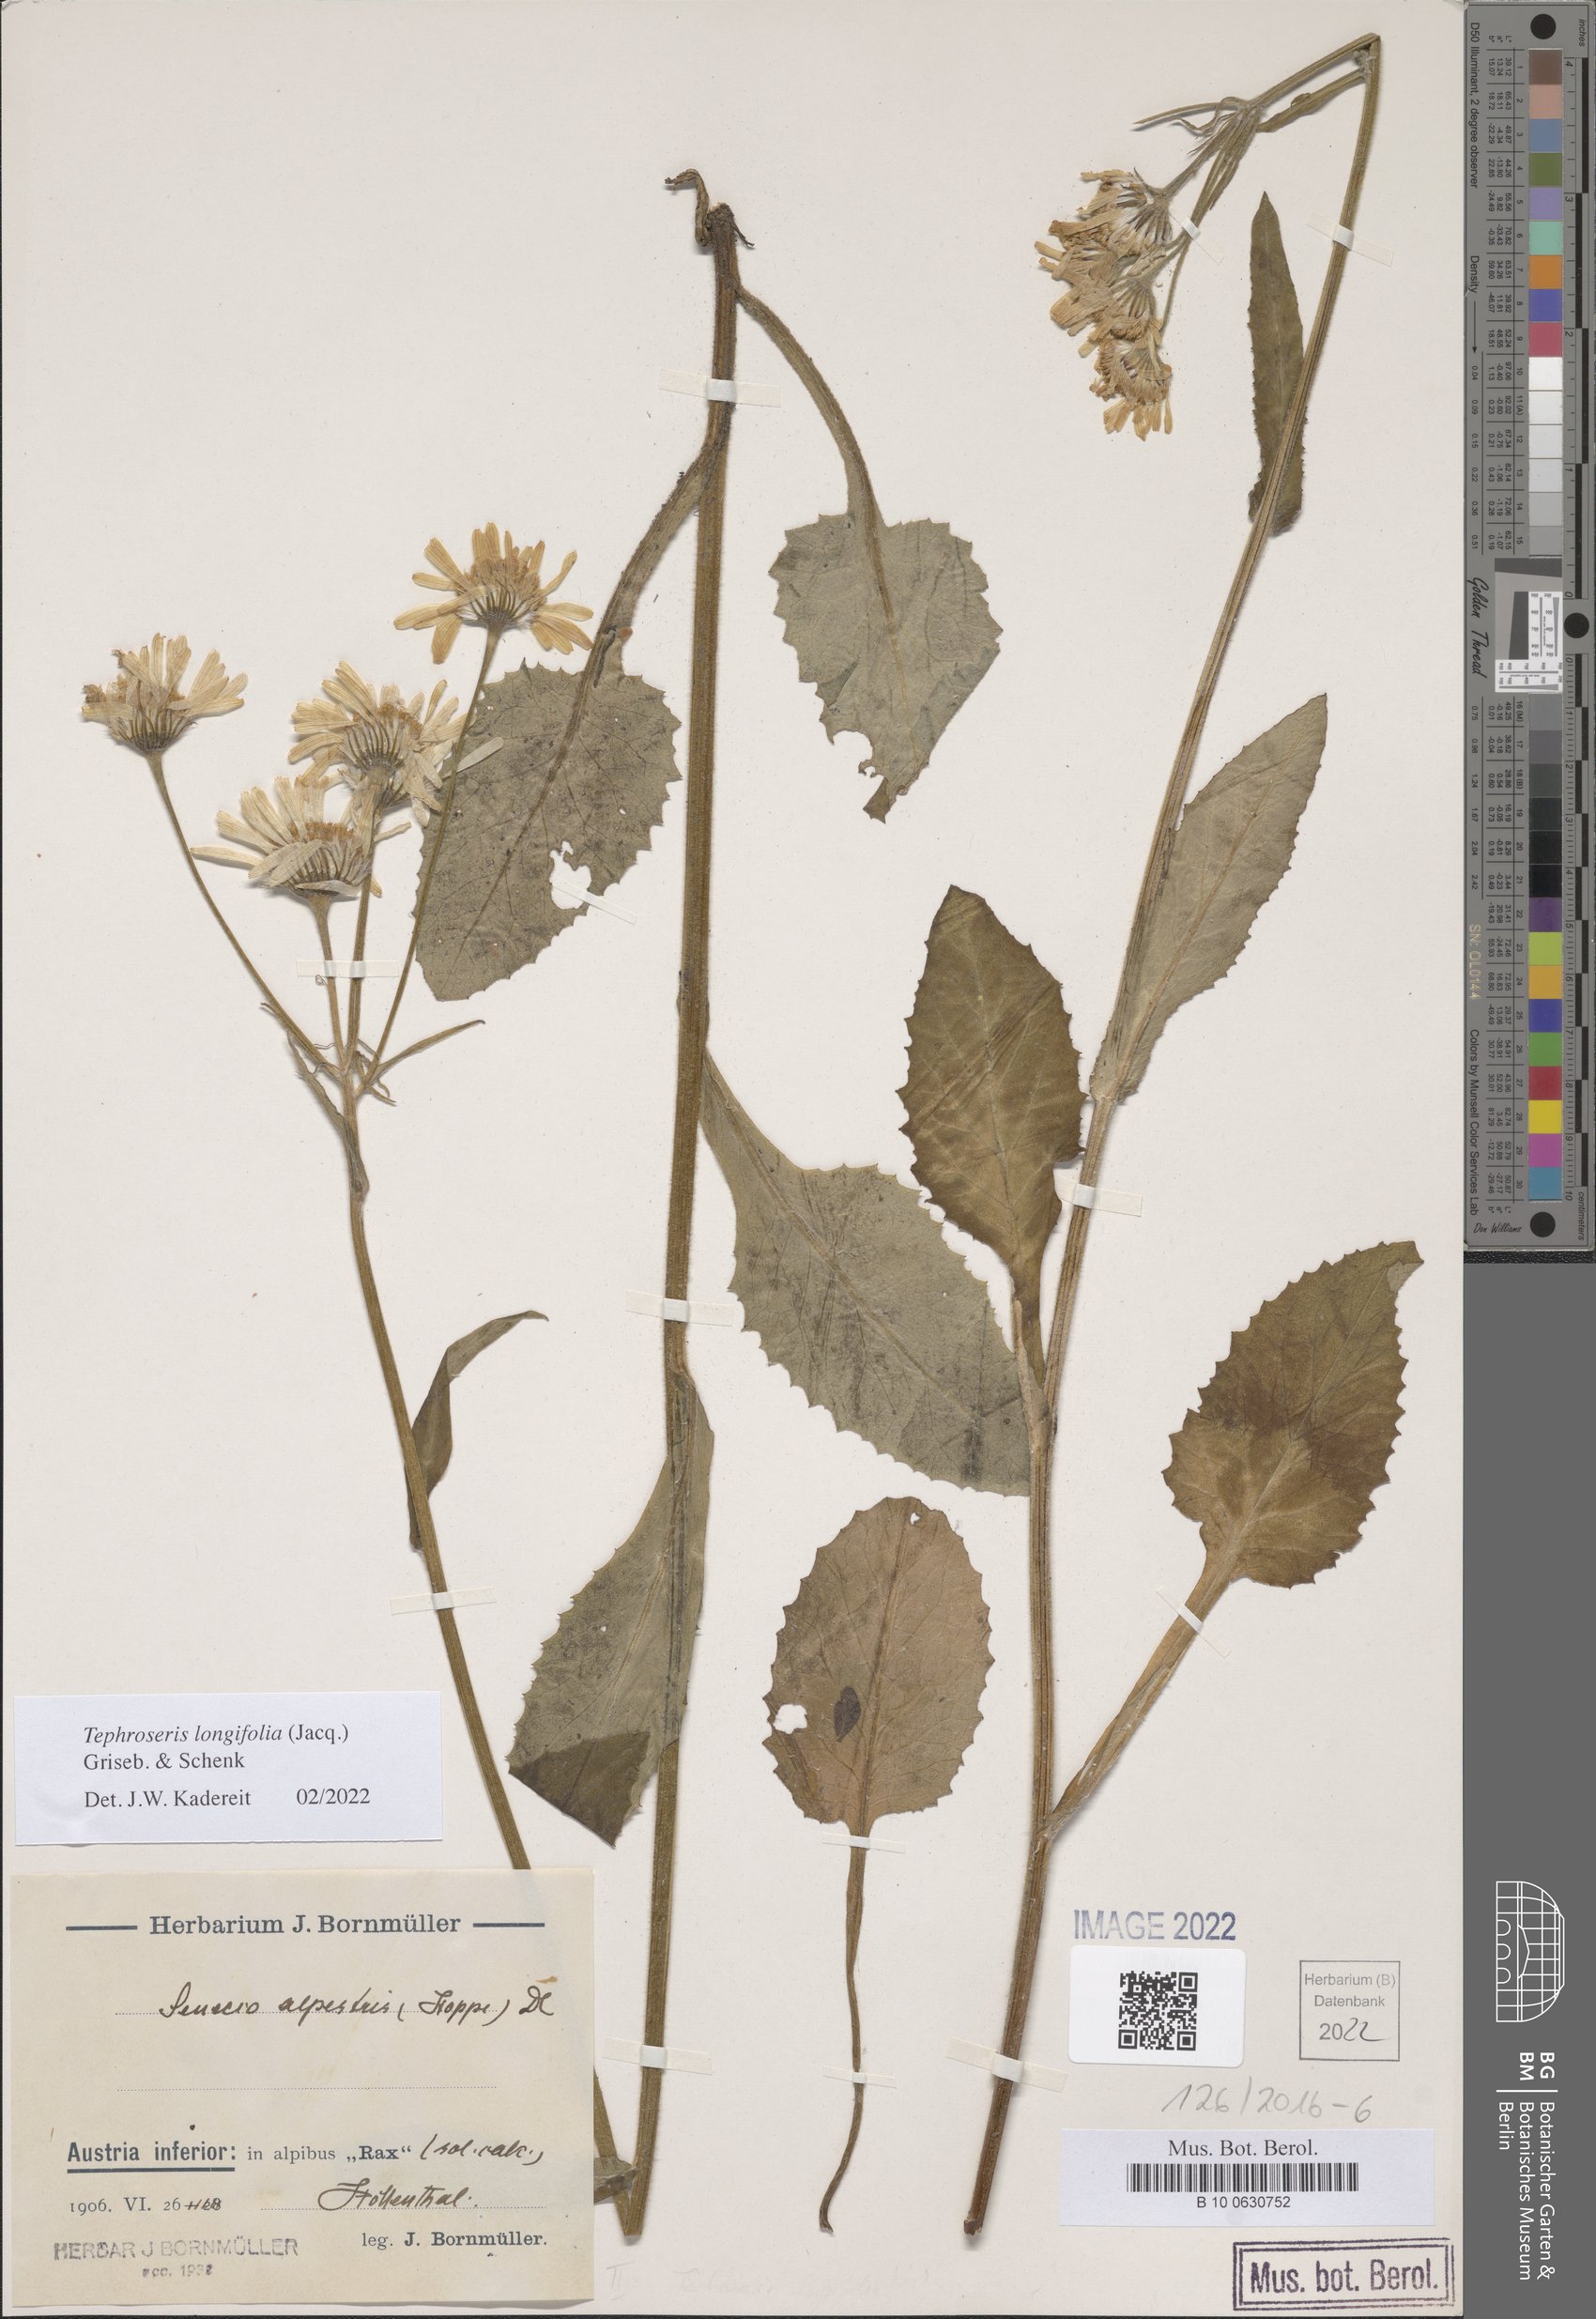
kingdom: Plantae
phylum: Tracheophyta
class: Magnoliopsida
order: Asterales
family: Asteraceae
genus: Tephroseris
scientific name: Tephroseris longifolia
